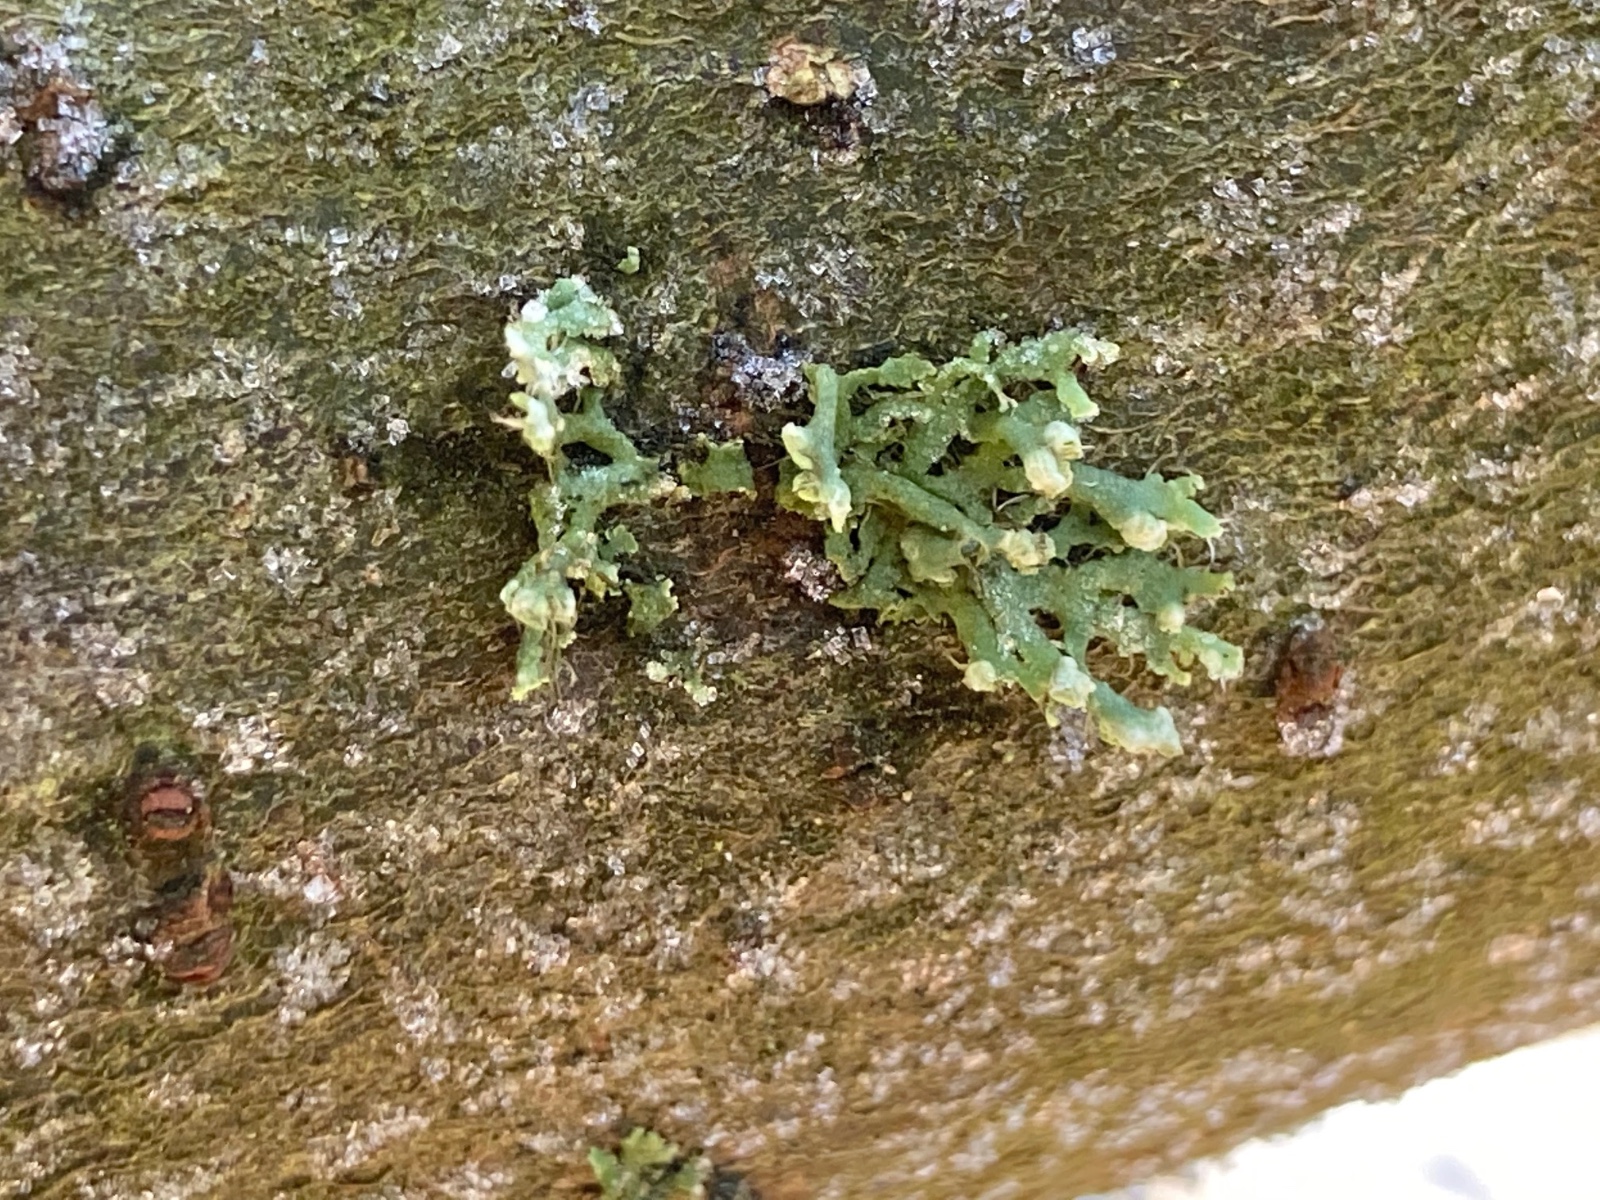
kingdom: Fungi
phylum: Ascomycota
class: Lecanoromycetes
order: Caliciales
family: Physciaceae
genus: Physcia
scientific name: Physcia adscendens
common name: hætte-rosetlav
